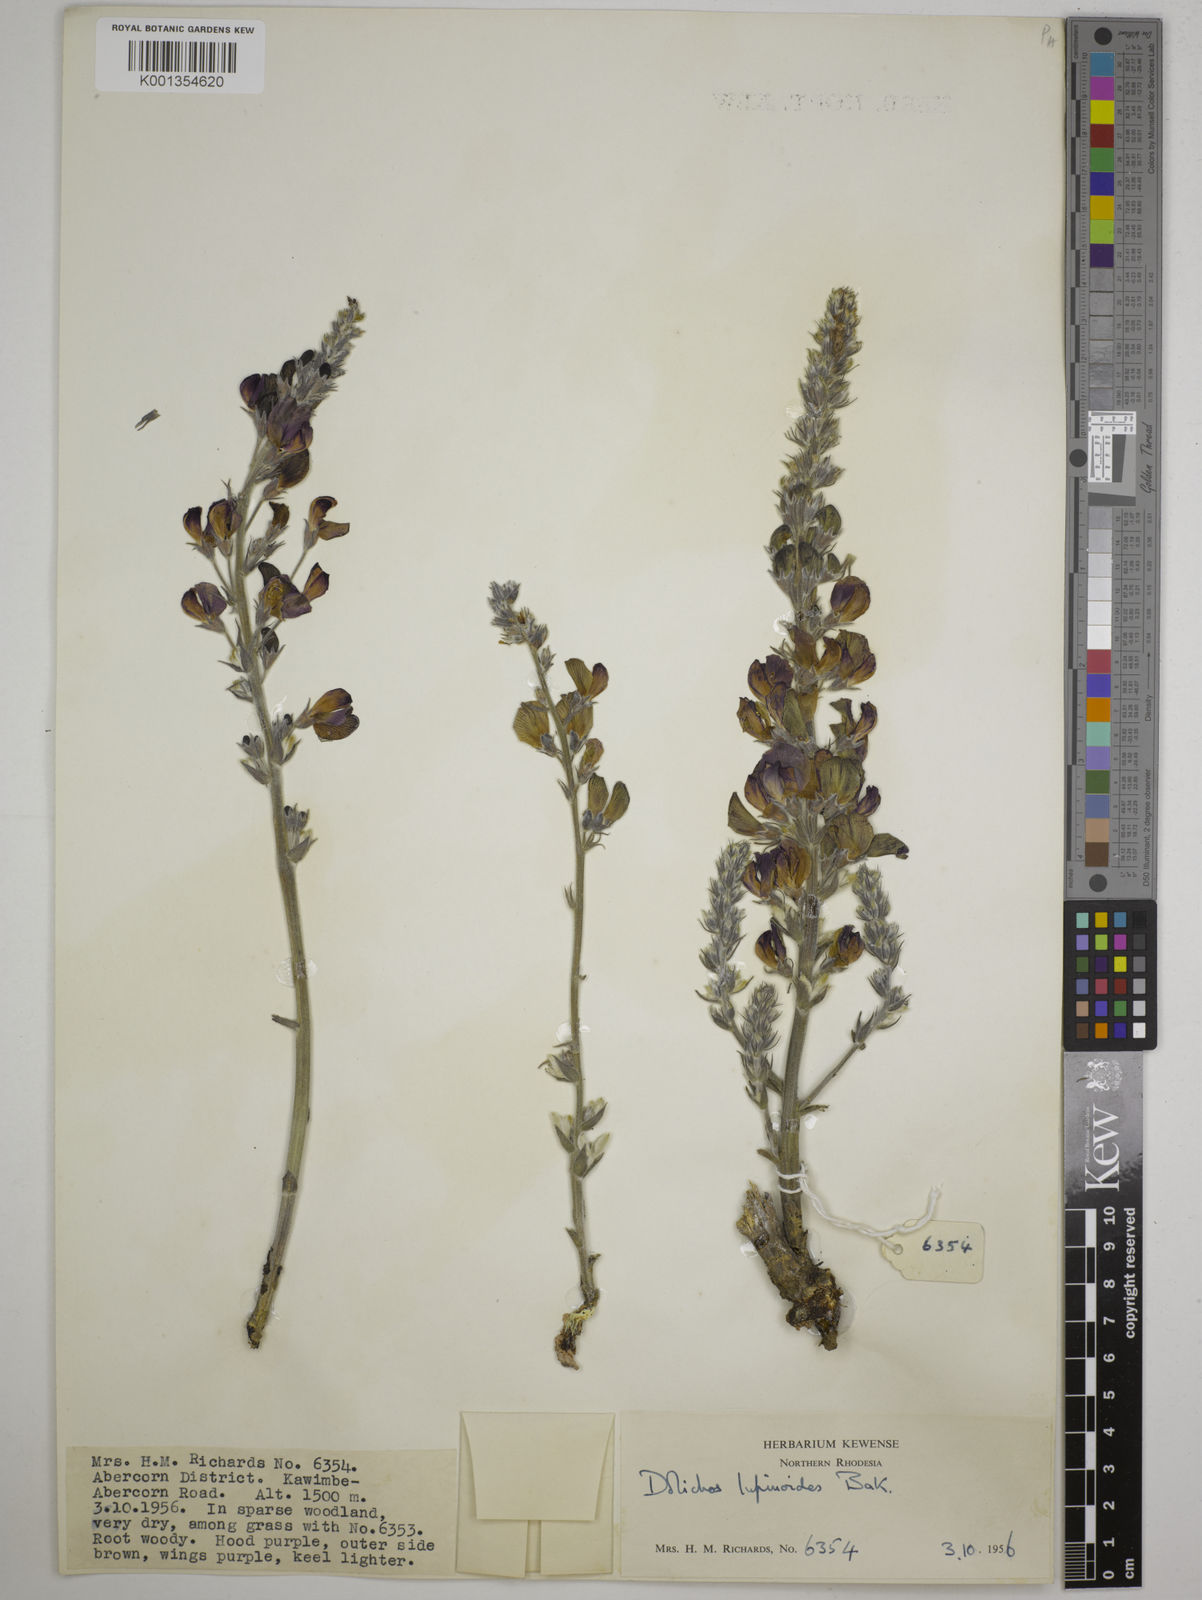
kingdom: Plantae
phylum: Tracheophyta
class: Magnoliopsida
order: Fabales
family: Fabaceae
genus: Dolichos
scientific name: Dolichos kilimandscharicus
